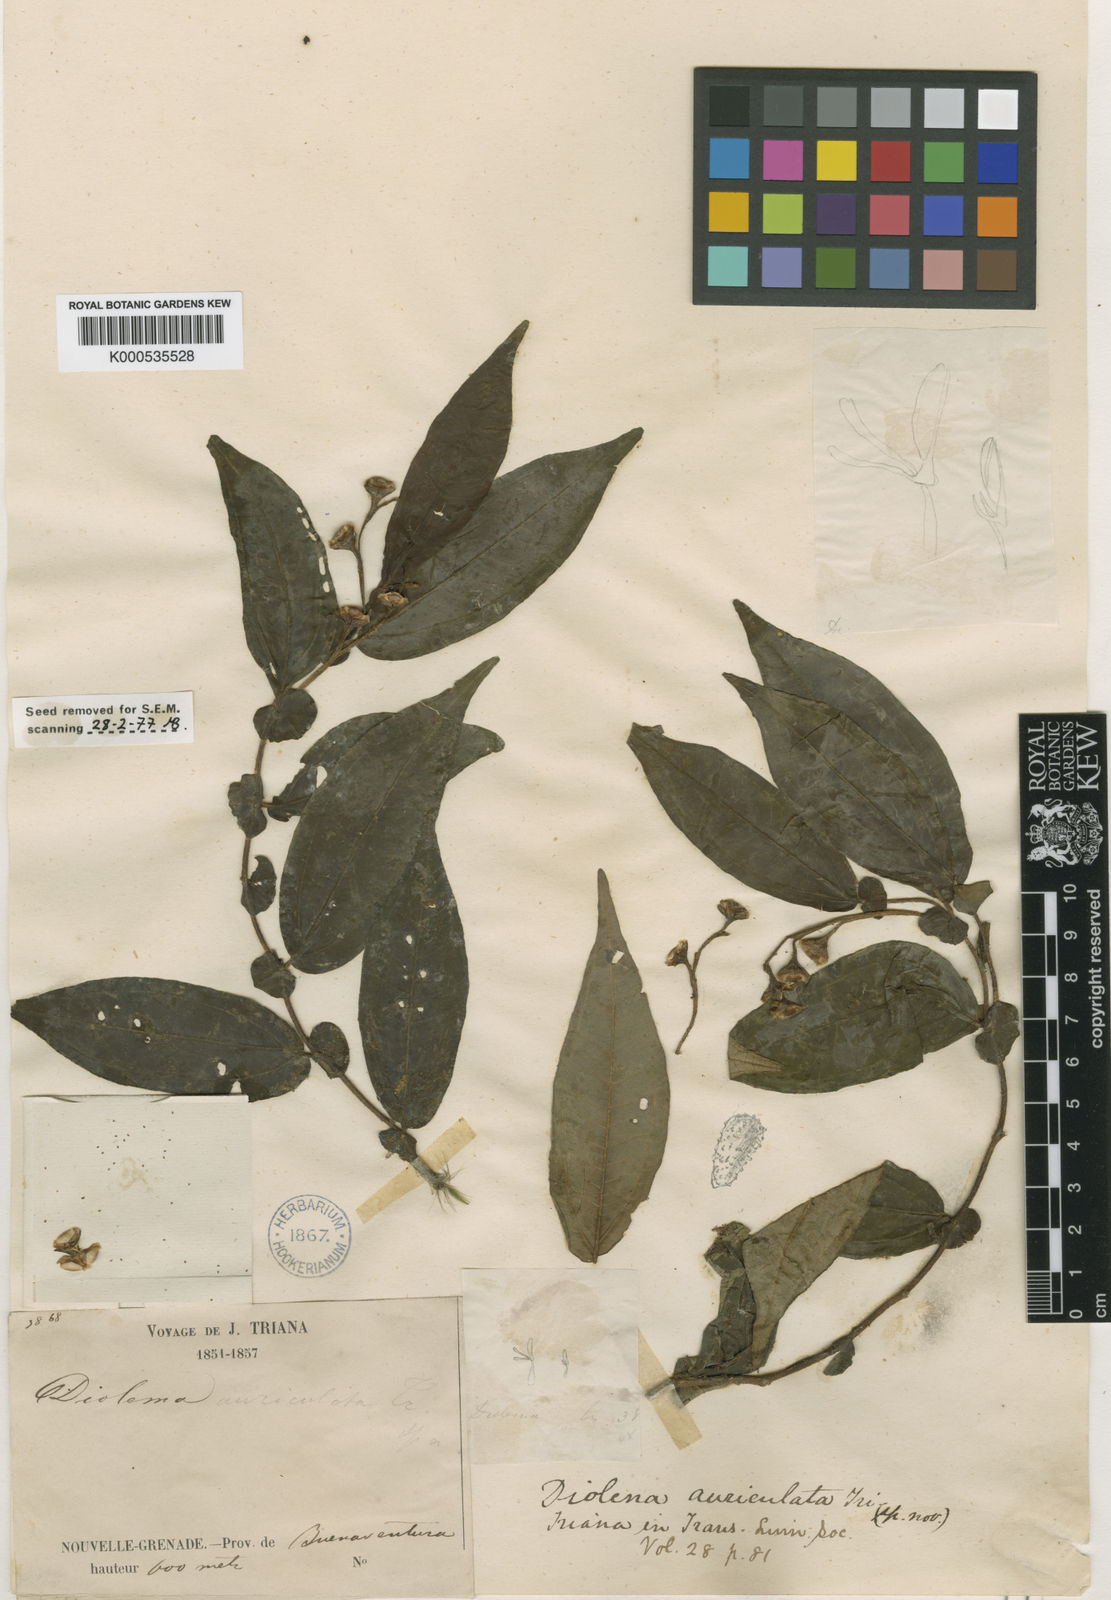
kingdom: Plantae
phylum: Tracheophyta
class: Magnoliopsida
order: Myrtales
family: Melastomataceae
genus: Triolena
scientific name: Triolena auriculata
